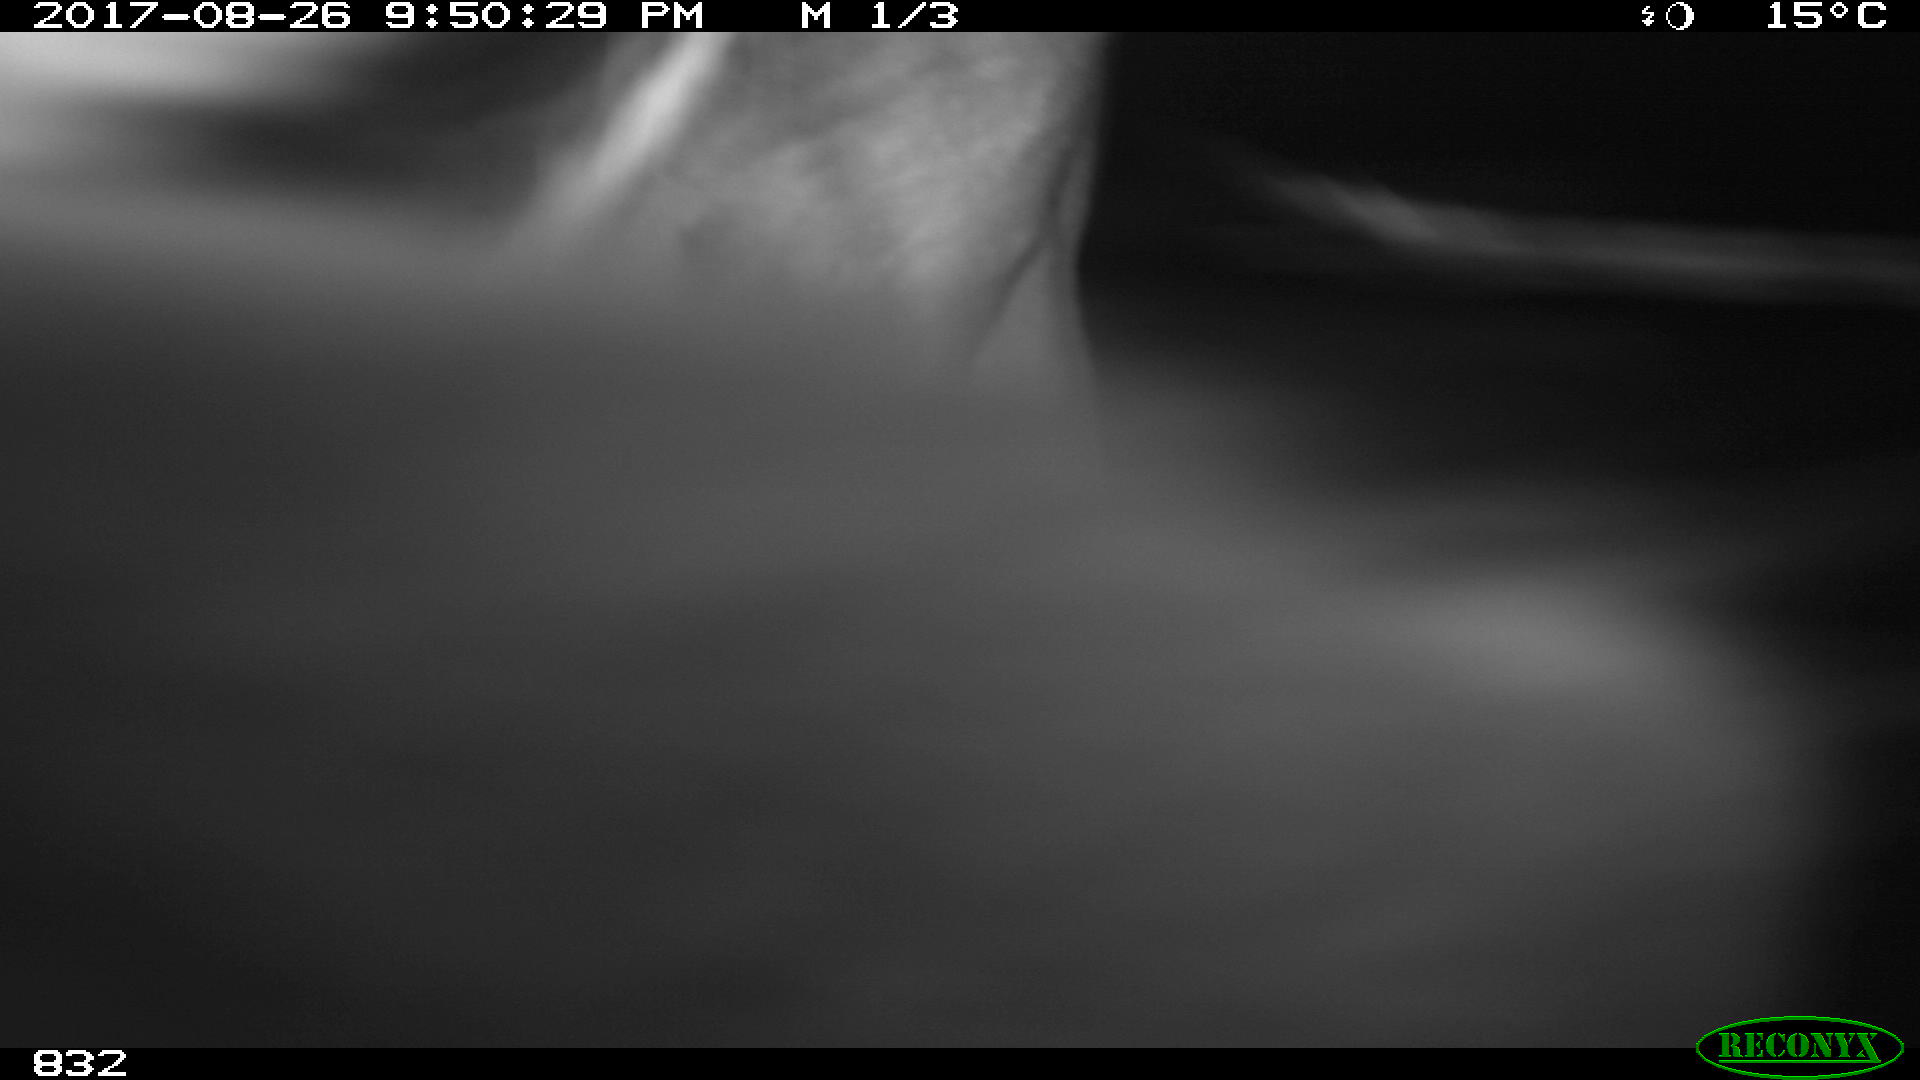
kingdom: Animalia
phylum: Chordata
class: Mammalia
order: Perissodactyla
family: Equidae
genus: Equus
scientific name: Equus caballus
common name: Horse
